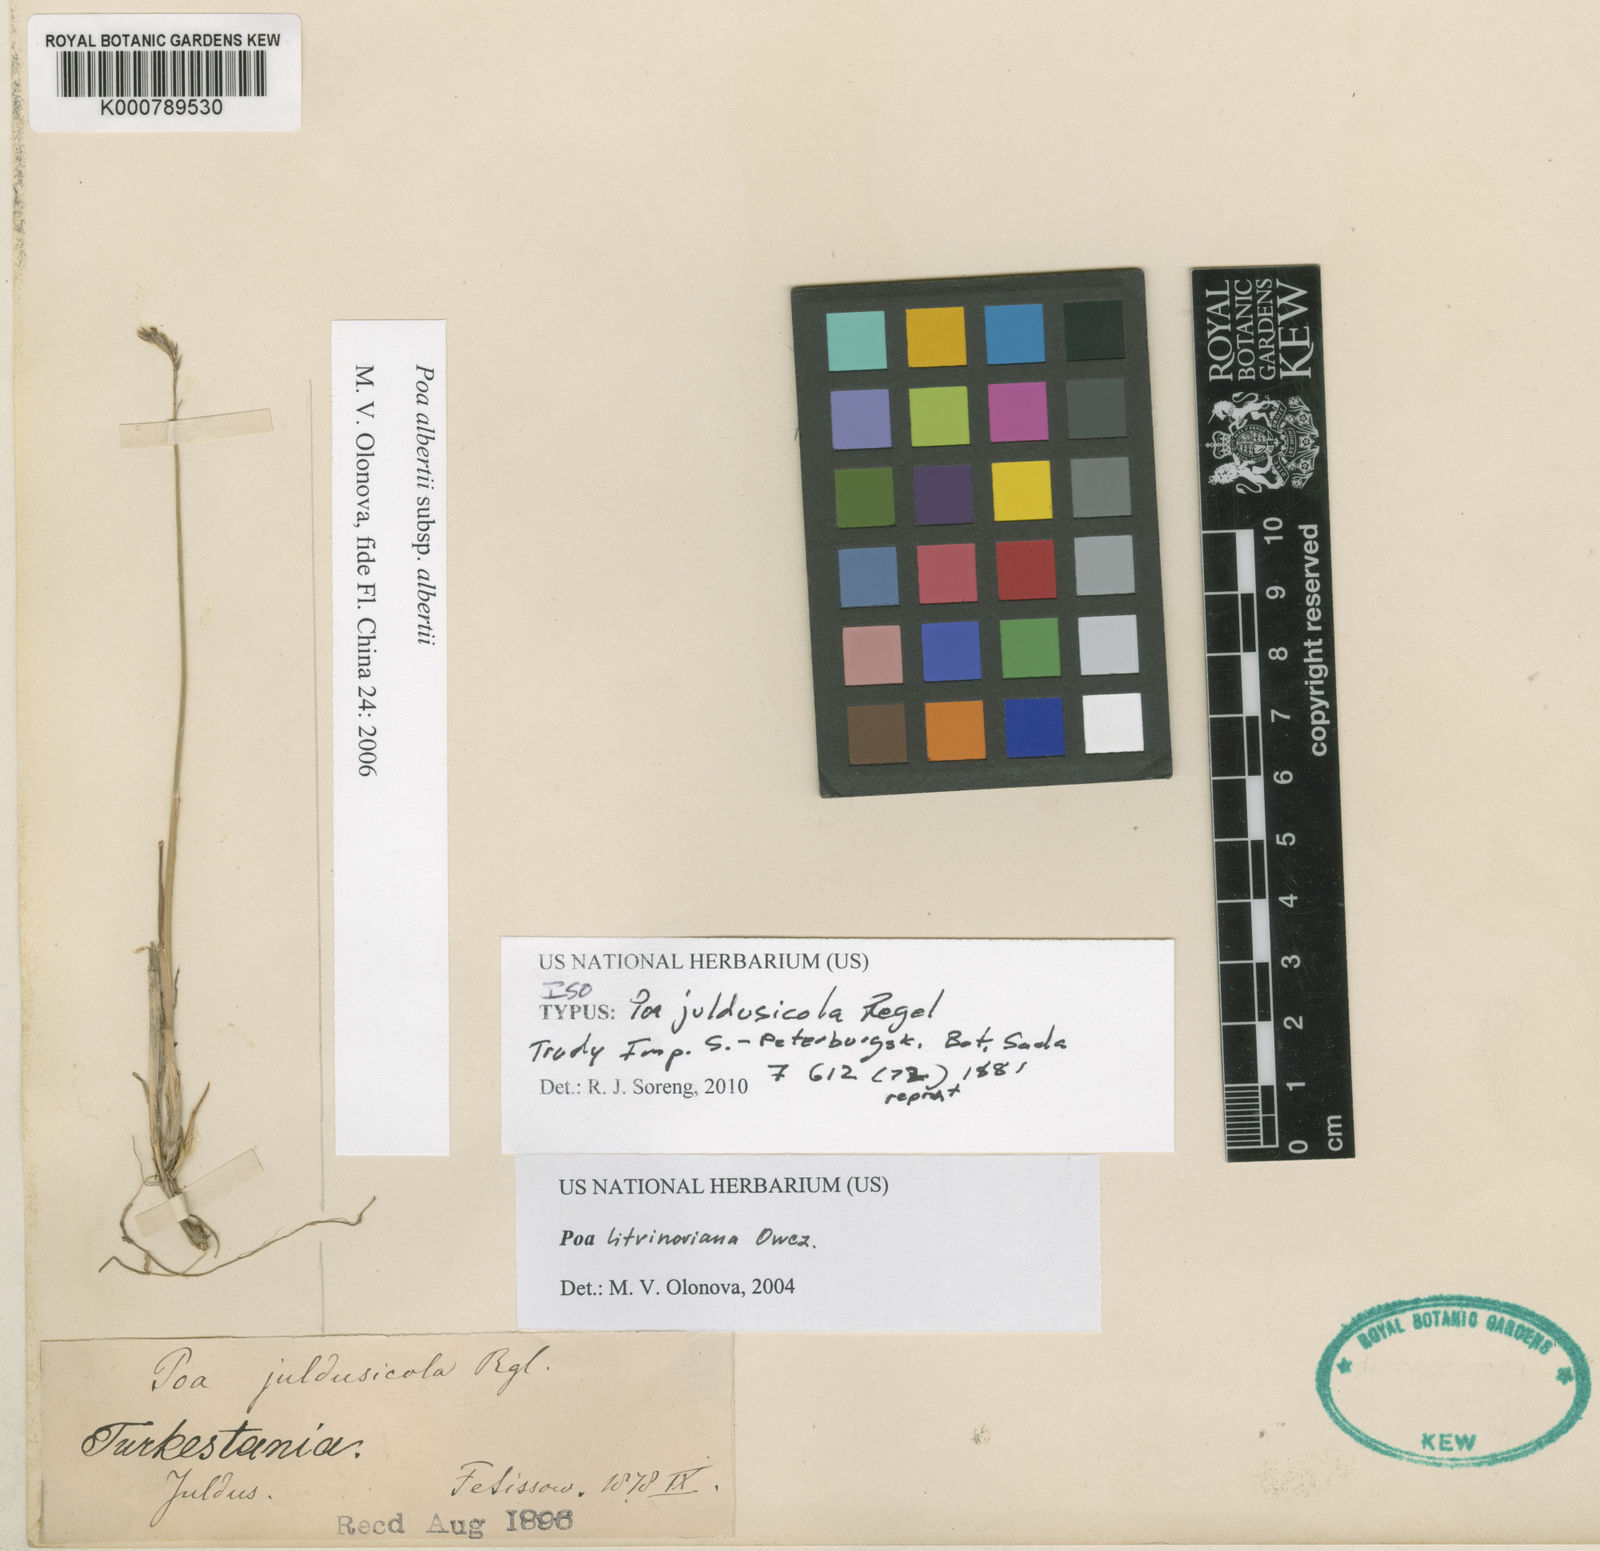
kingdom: Plantae
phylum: Tracheophyta
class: Liliopsida
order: Poales
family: Poaceae
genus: Poa
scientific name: Poa attenuata
